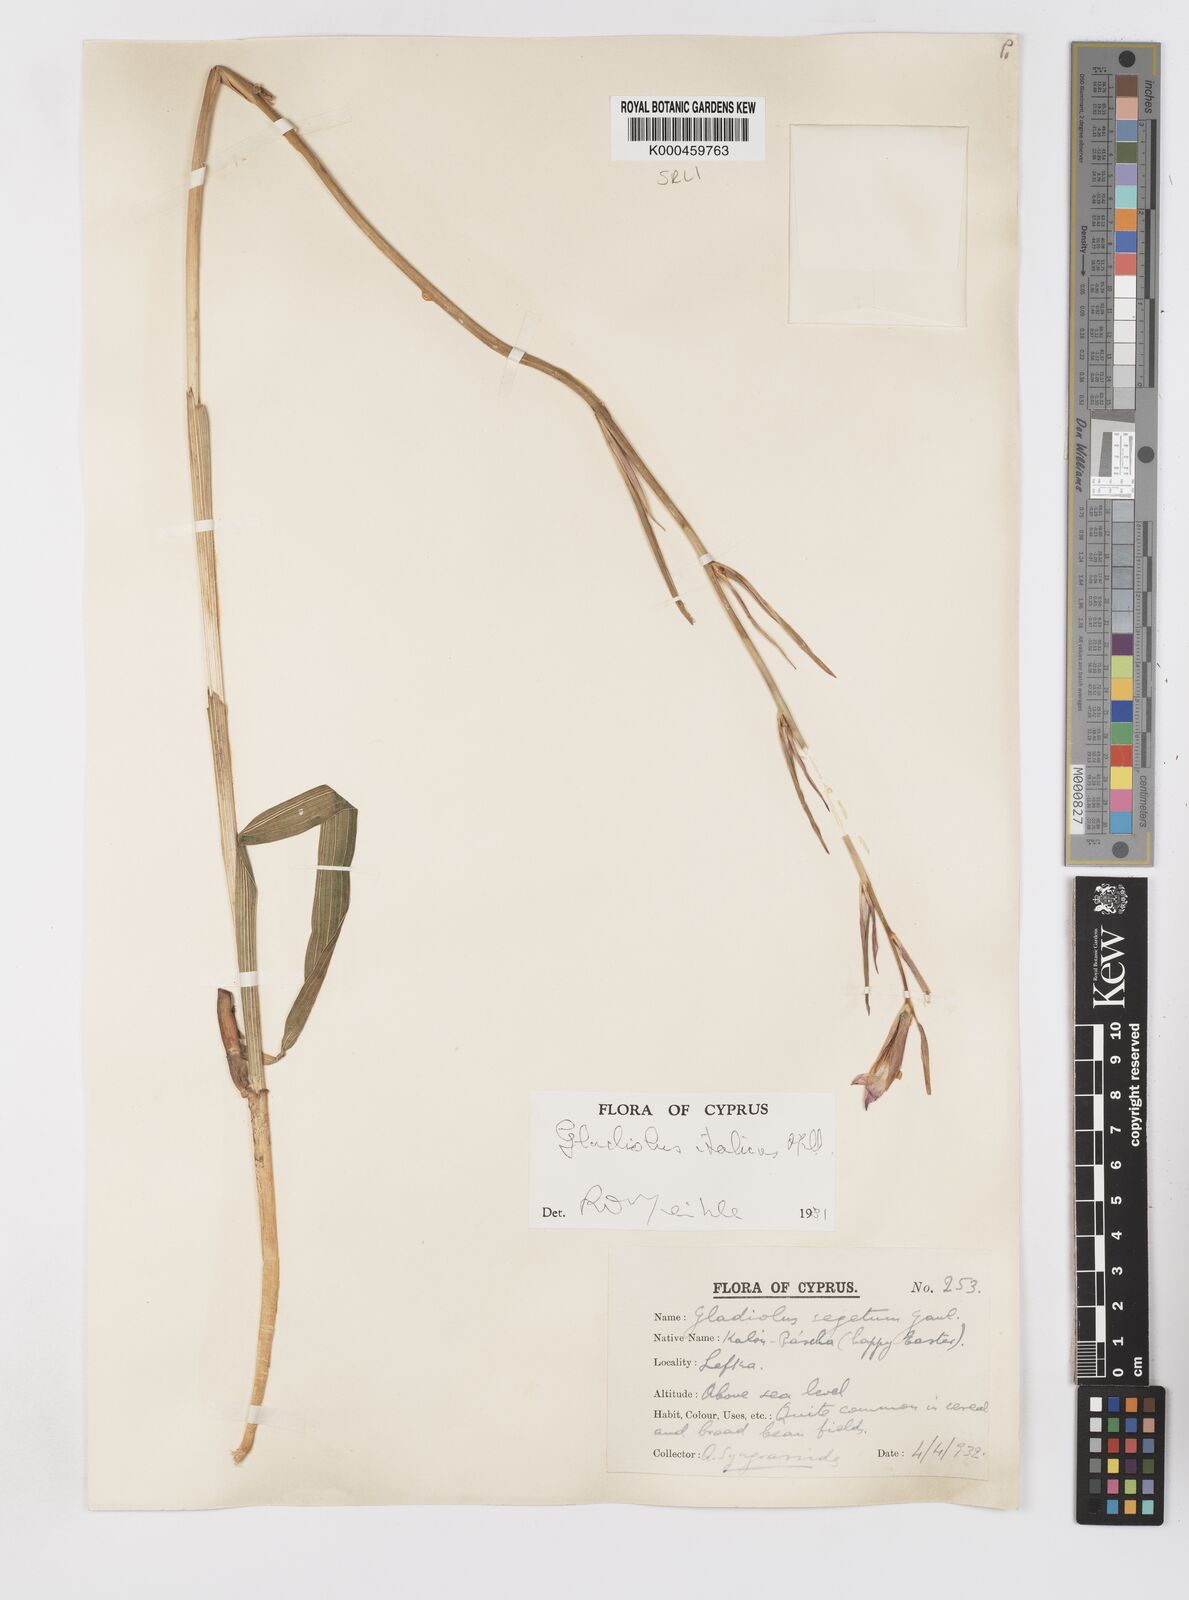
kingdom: Plantae
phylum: Tracheophyta
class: Liliopsida
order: Asparagales
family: Iridaceae
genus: Gladiolus
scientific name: Gladiolus italicus
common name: Field gladiolus
